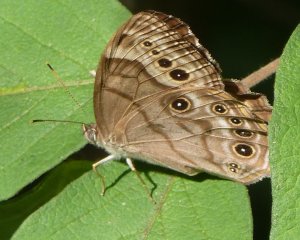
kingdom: Animalia
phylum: Arthropoda
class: Insecta
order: Lepidoptera
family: Nymphalidae
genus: Lethe
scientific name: Lethe anthedon
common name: Northern Pearly-Eye
